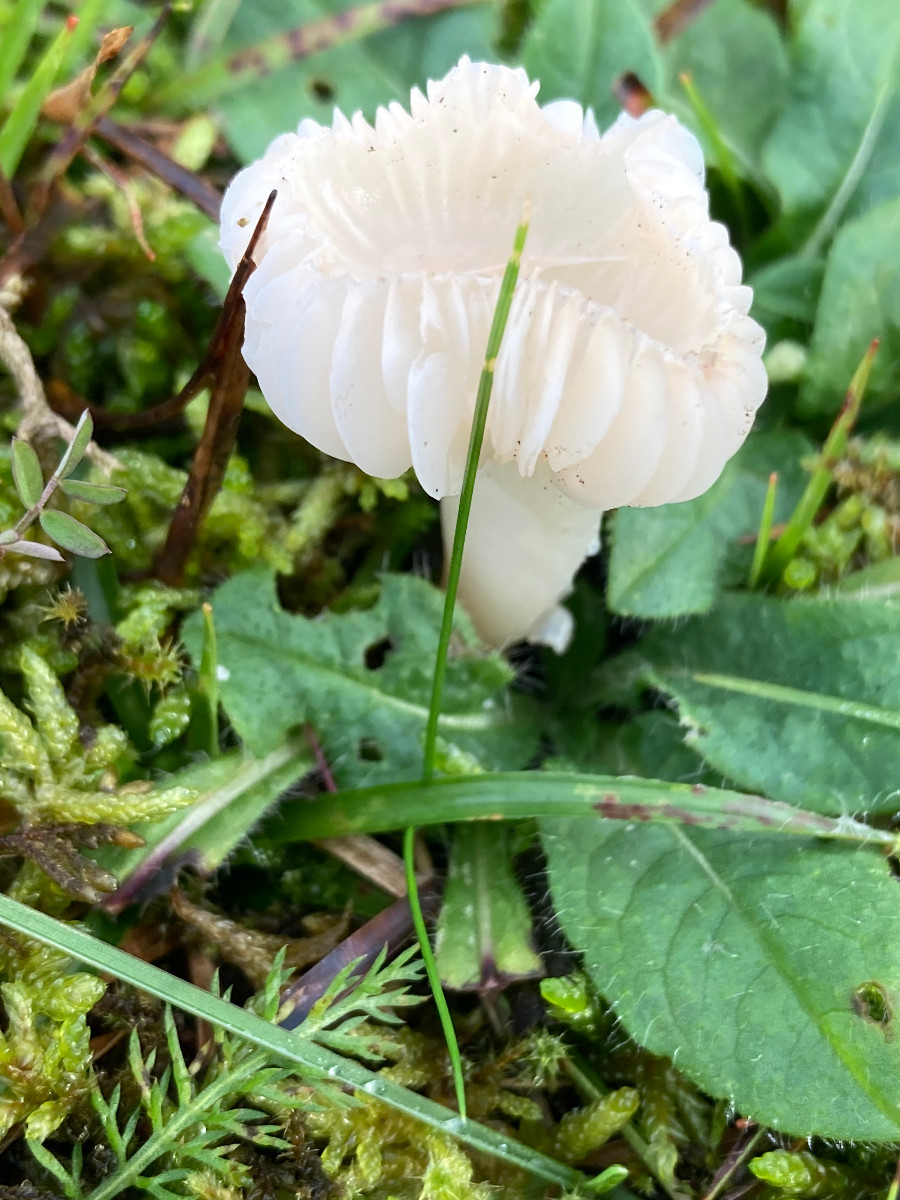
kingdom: Fungi
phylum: Basidiomycota
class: Agaricomycetes
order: Agaricales
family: Hygrophoraceae
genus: Cuphophyllus
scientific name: Cuphophyllus virgineus
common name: snehvid vokshat
